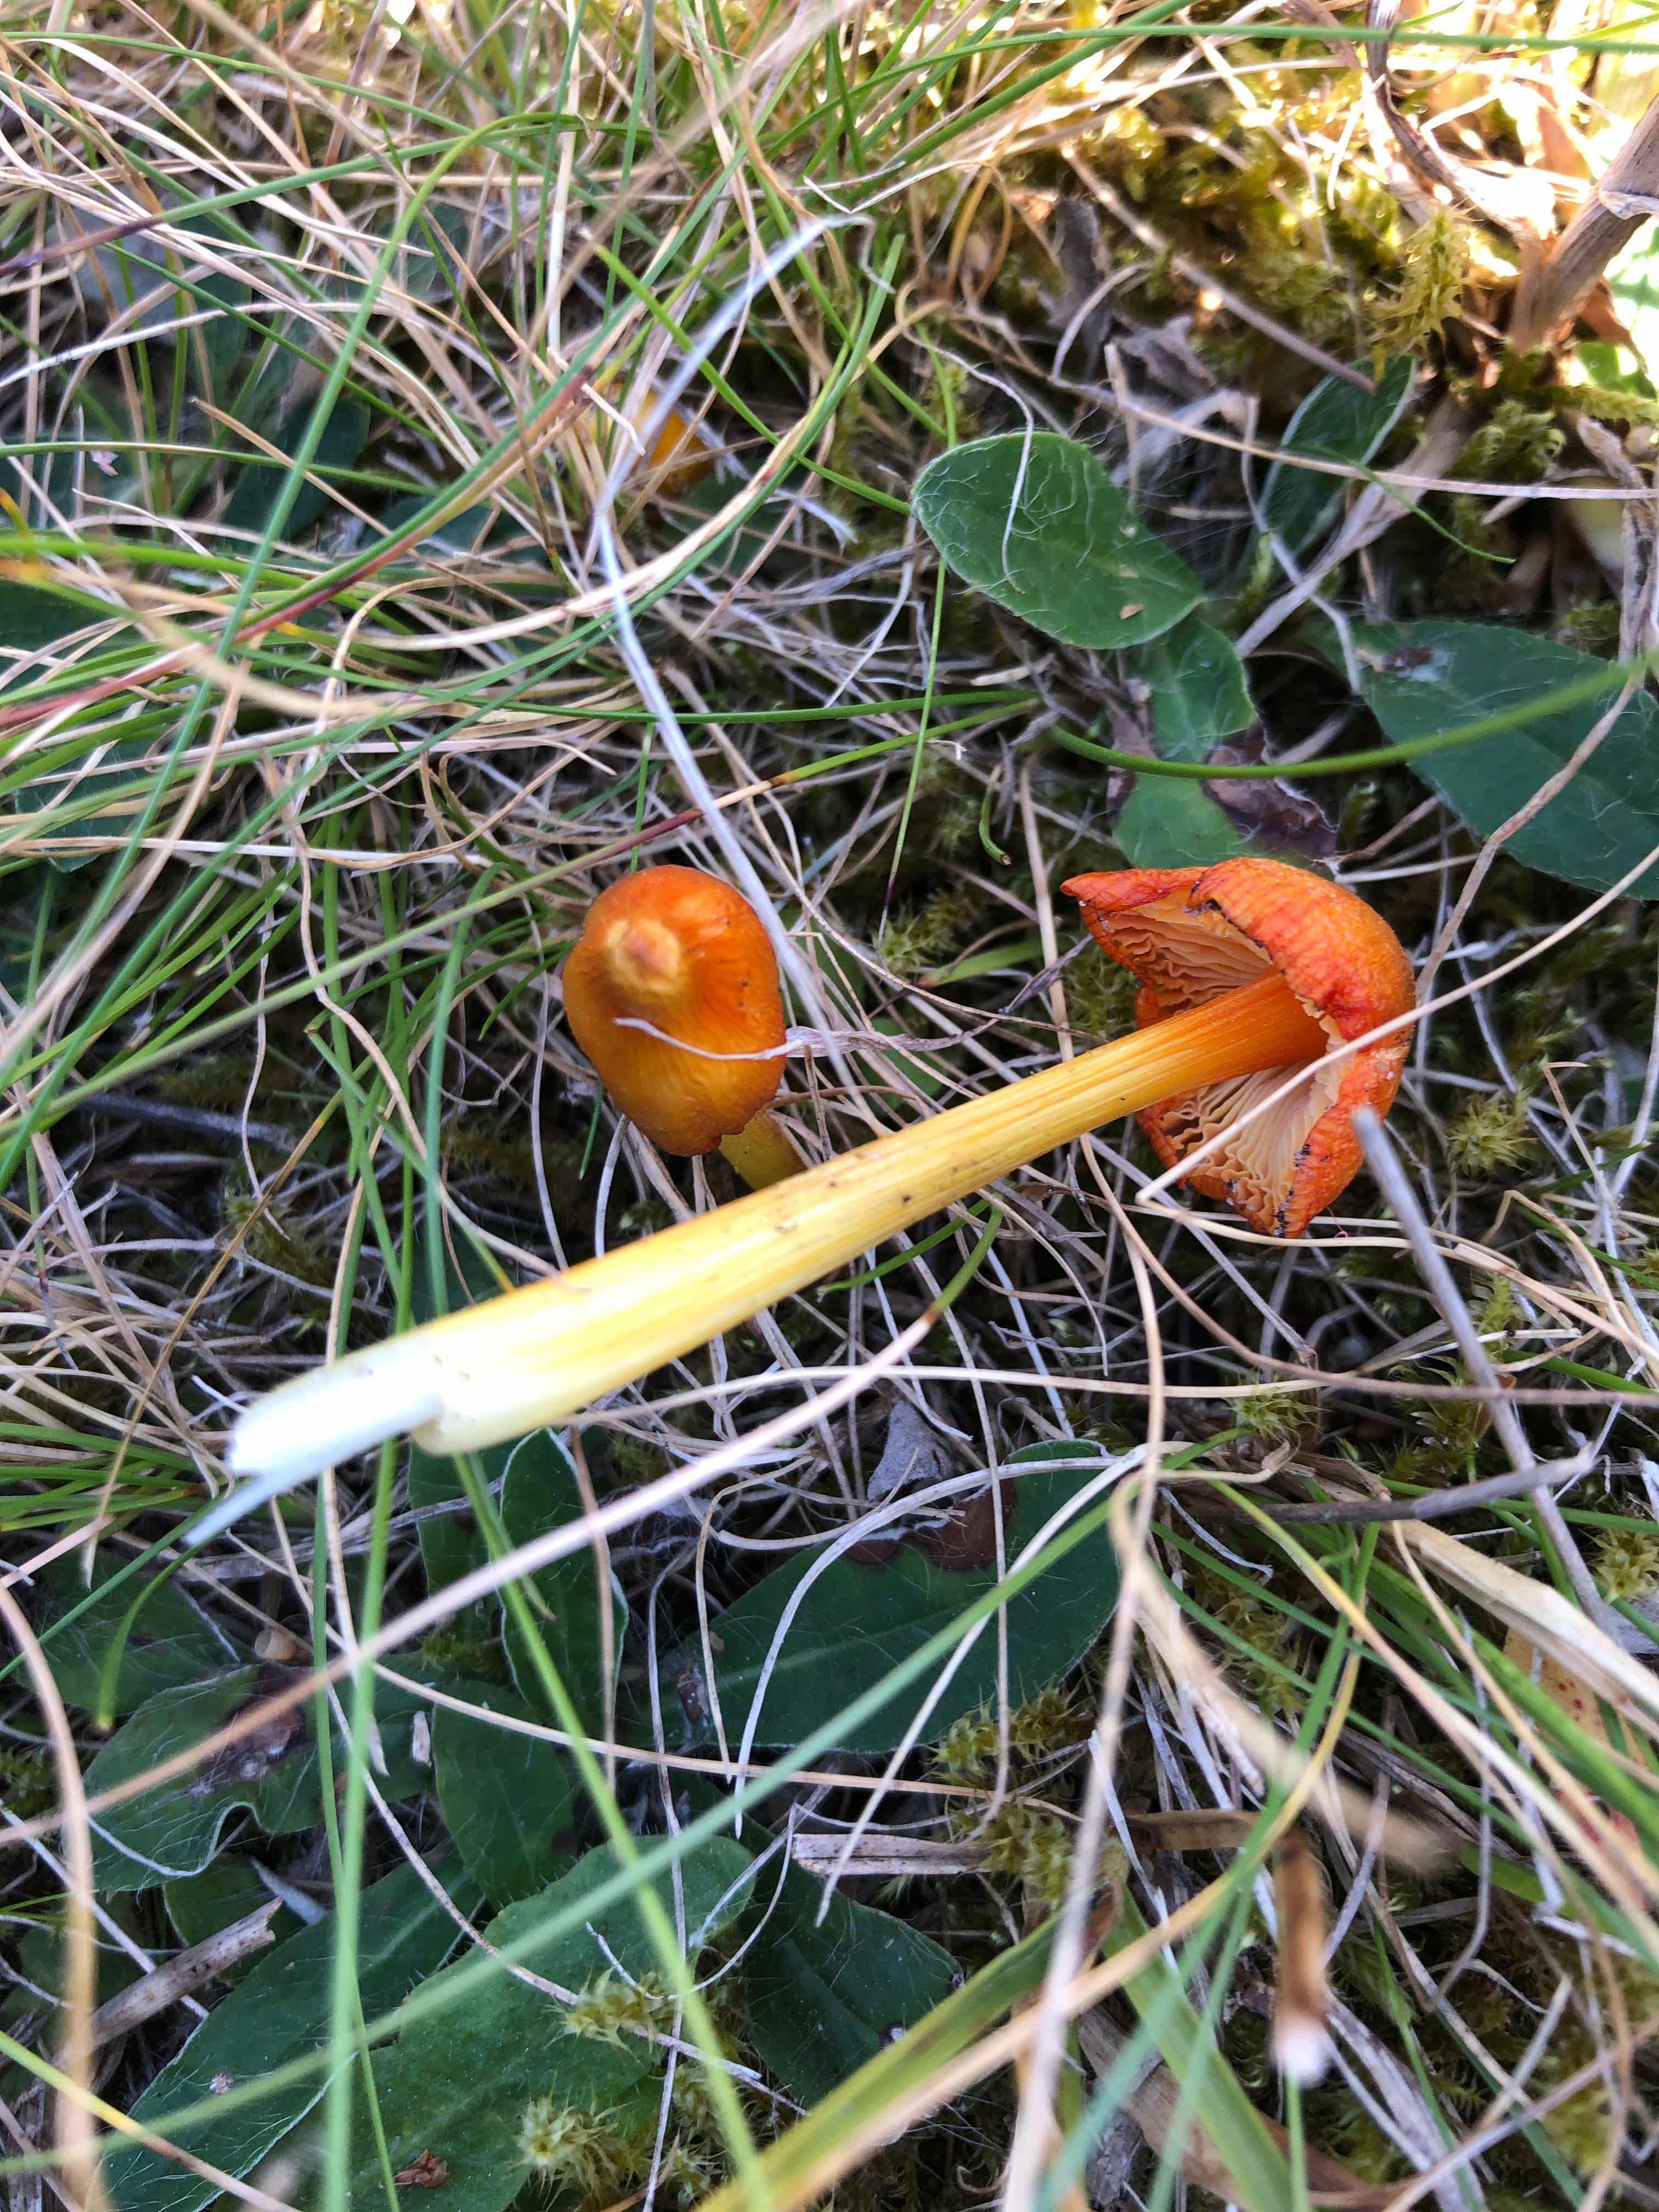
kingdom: Fungi
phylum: Basidiomycota
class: Agaricomycetes
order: Agaricales
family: Hygrophoraceae
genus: Hygrocybe
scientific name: Hygrocybe acutoconica
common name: spidspuklet vokshat
